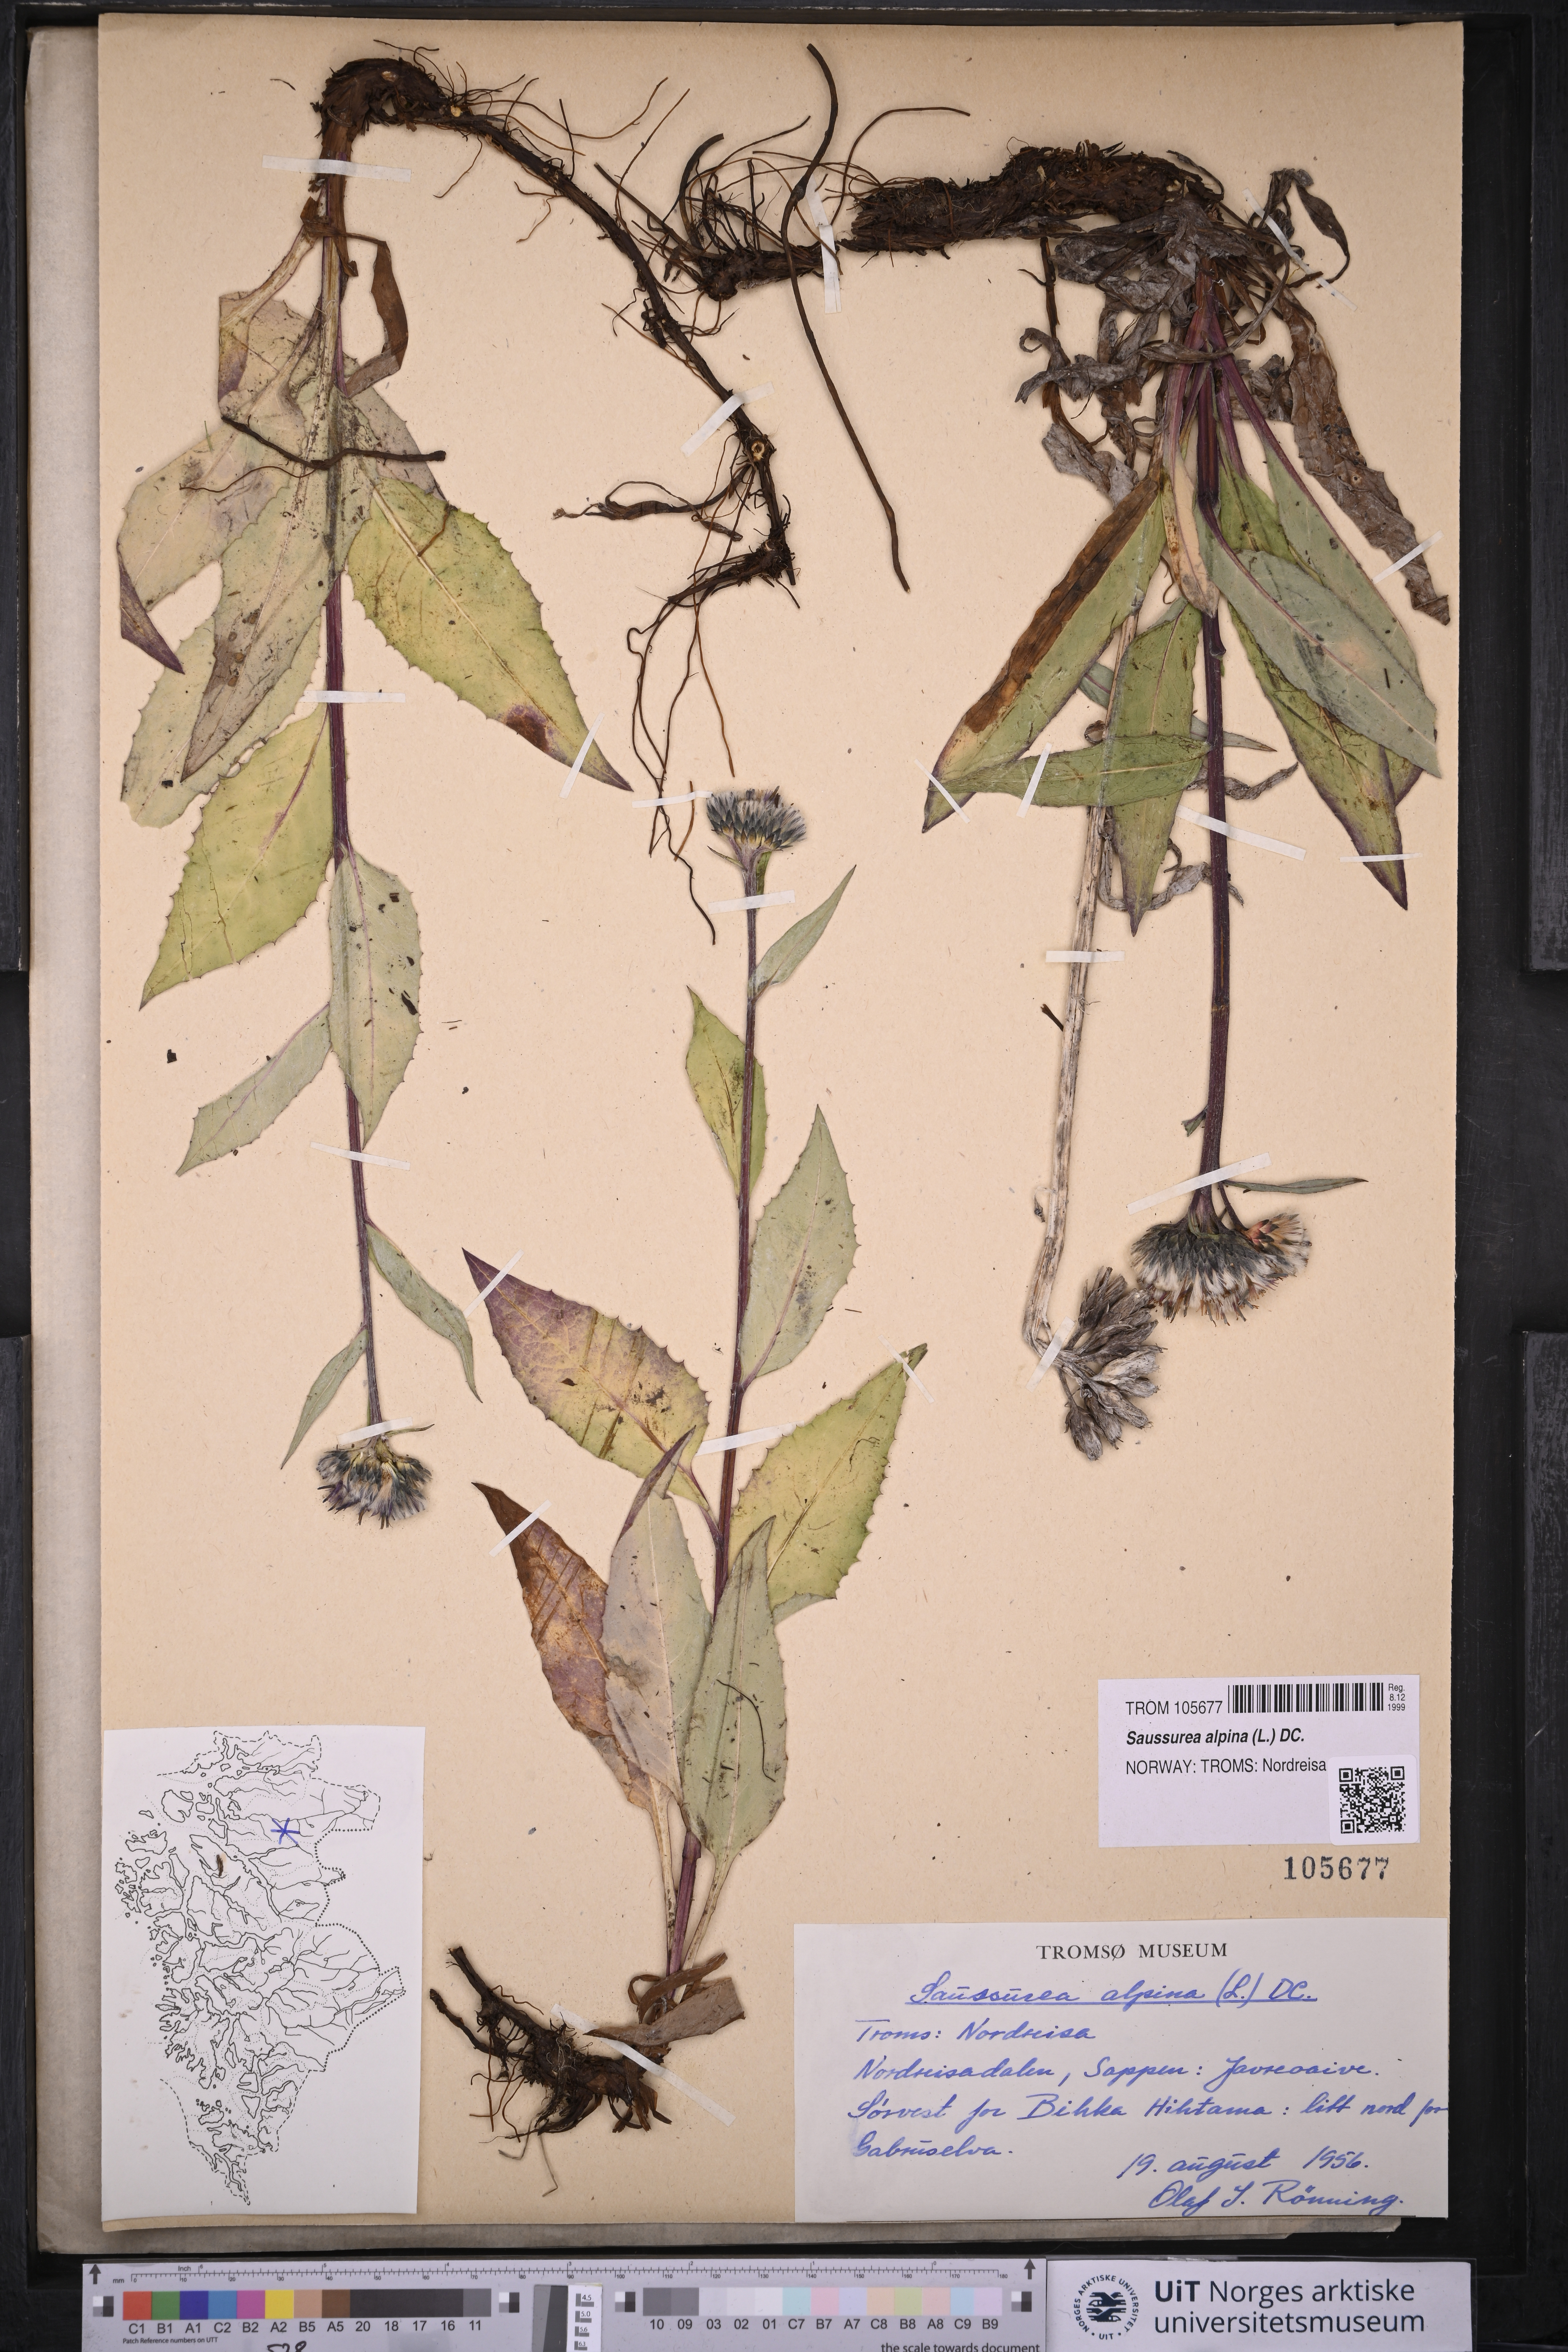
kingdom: Plantae
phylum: Tracheophyta
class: Magnoliopsida
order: Asterales
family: Asteraceae
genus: Saussurea
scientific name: Saussurea alpina
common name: Alpine saw-wort
